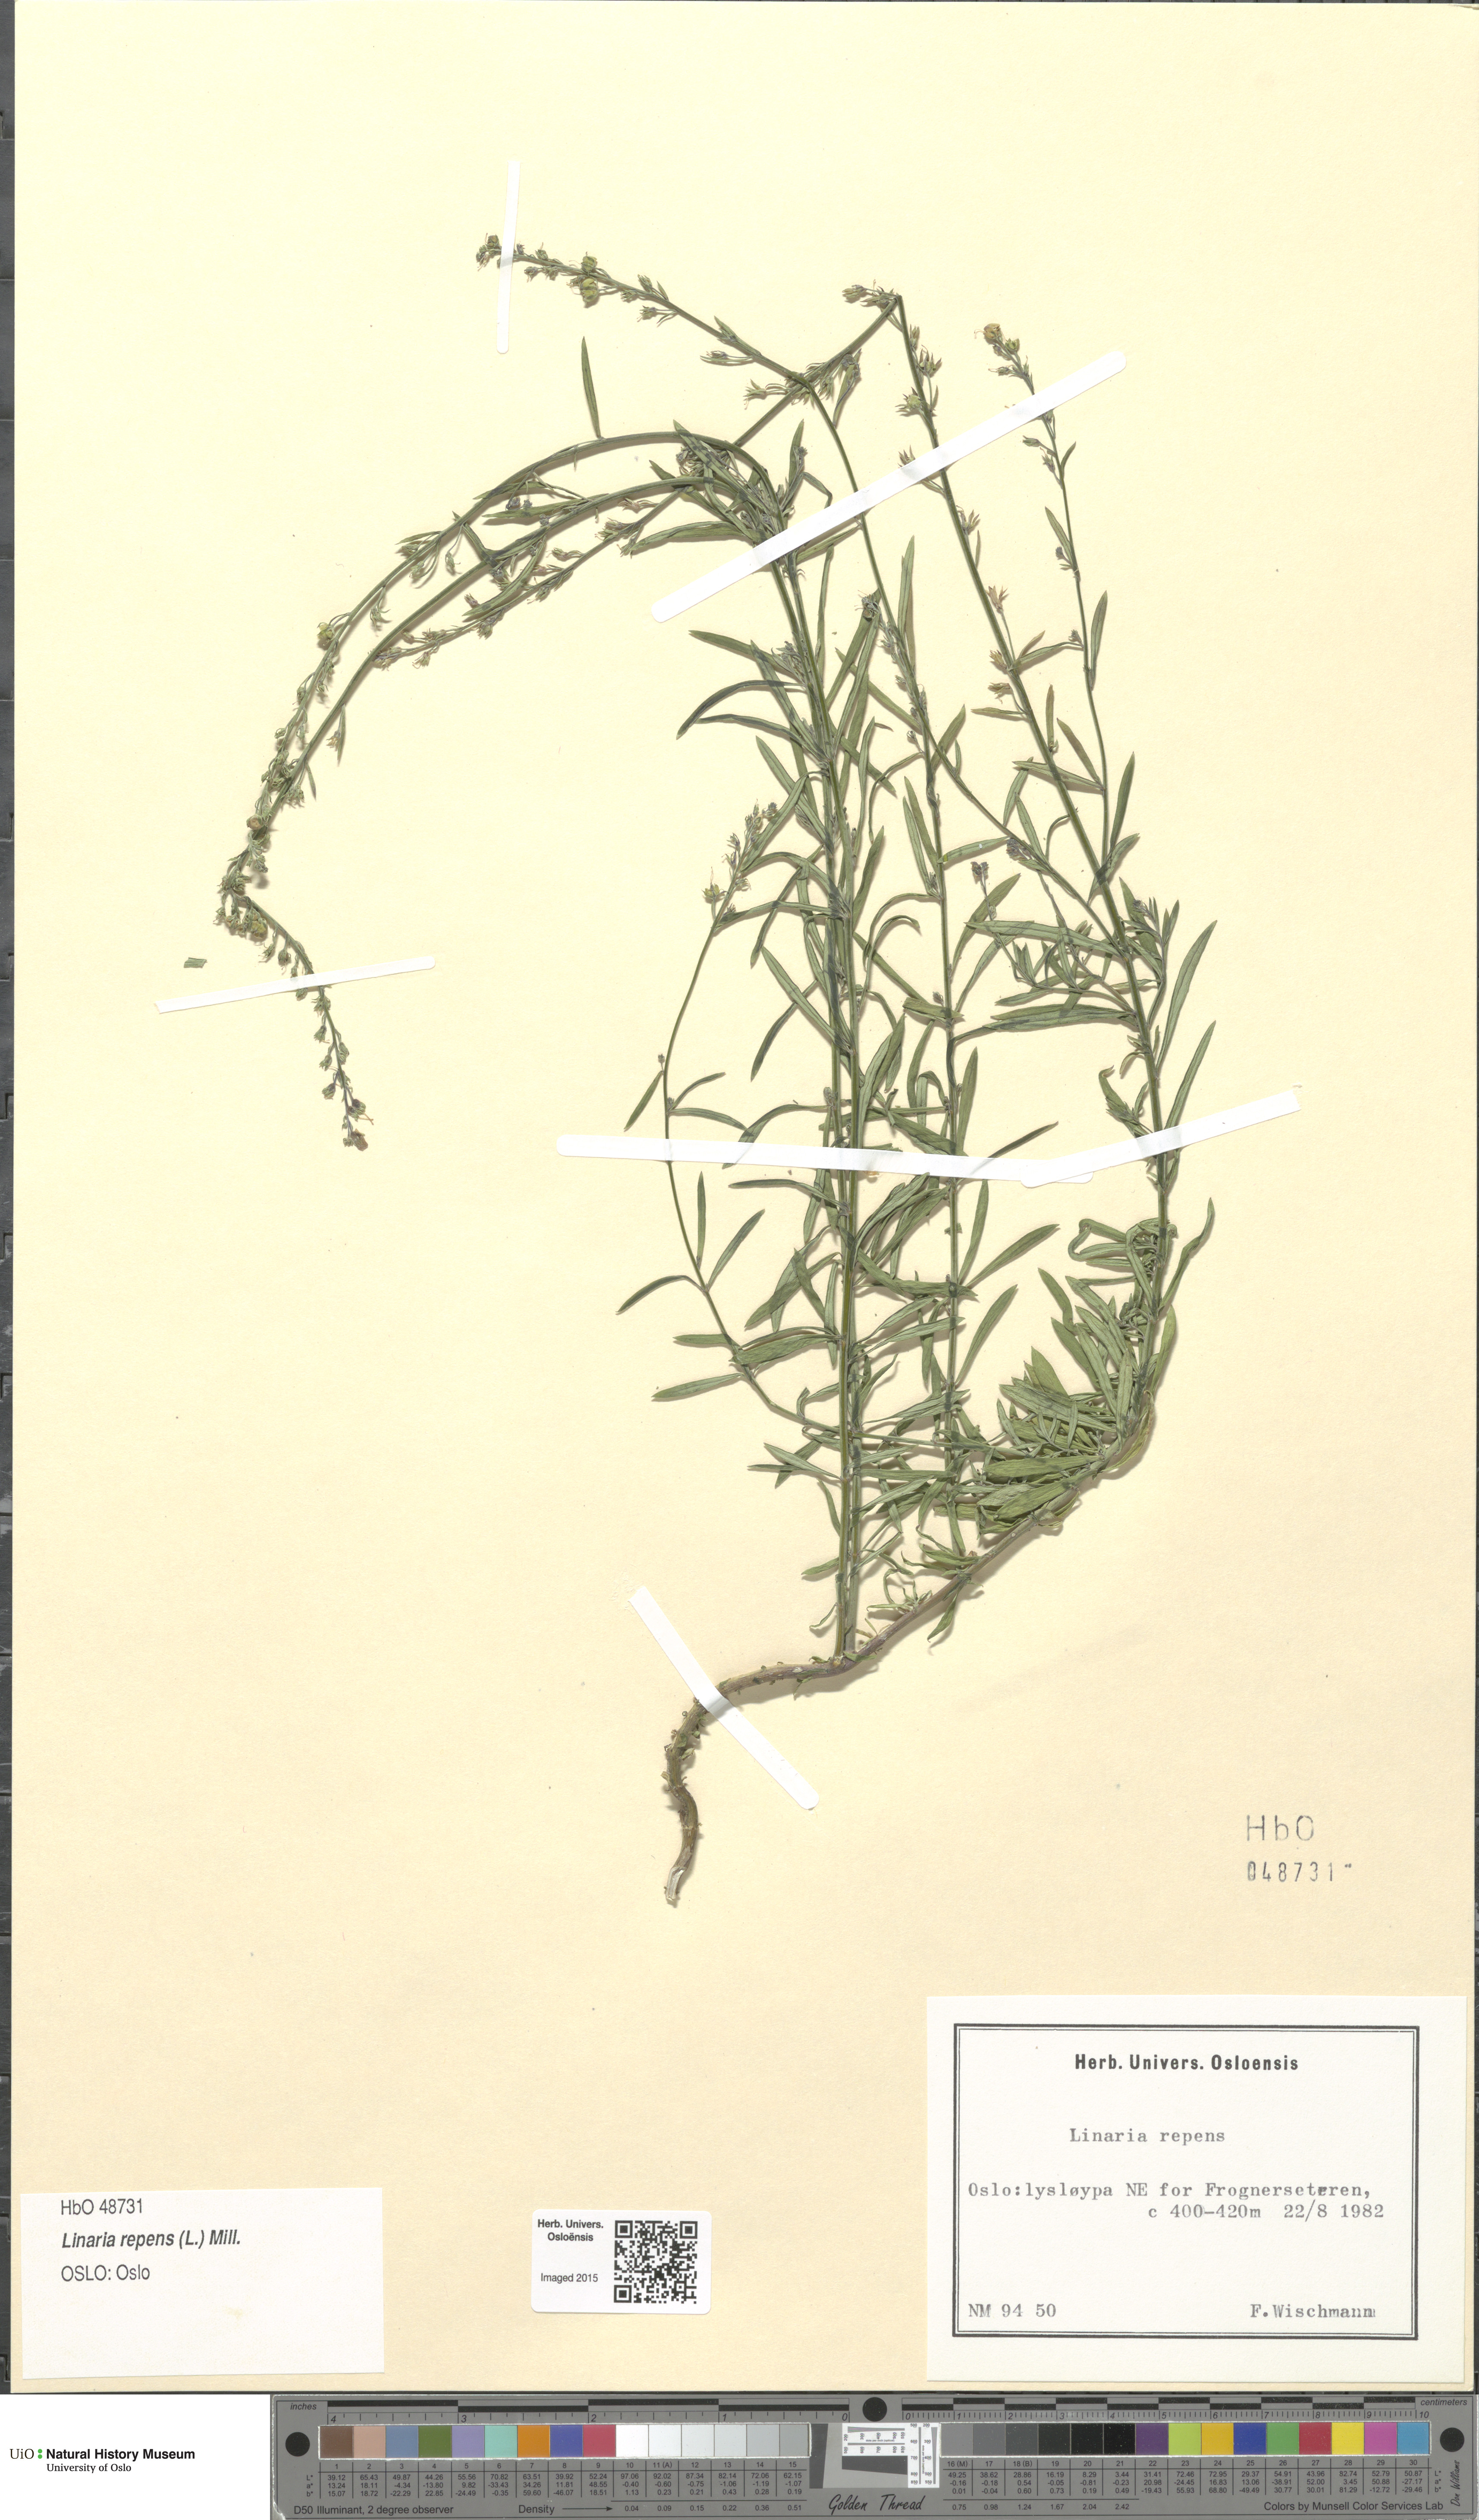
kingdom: Plantae
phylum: Tracheophyta
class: Magnoliopsida
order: Lamiales
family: Plantaginaceae
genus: Linaria
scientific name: Linaria repens
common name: Pale toadflax
